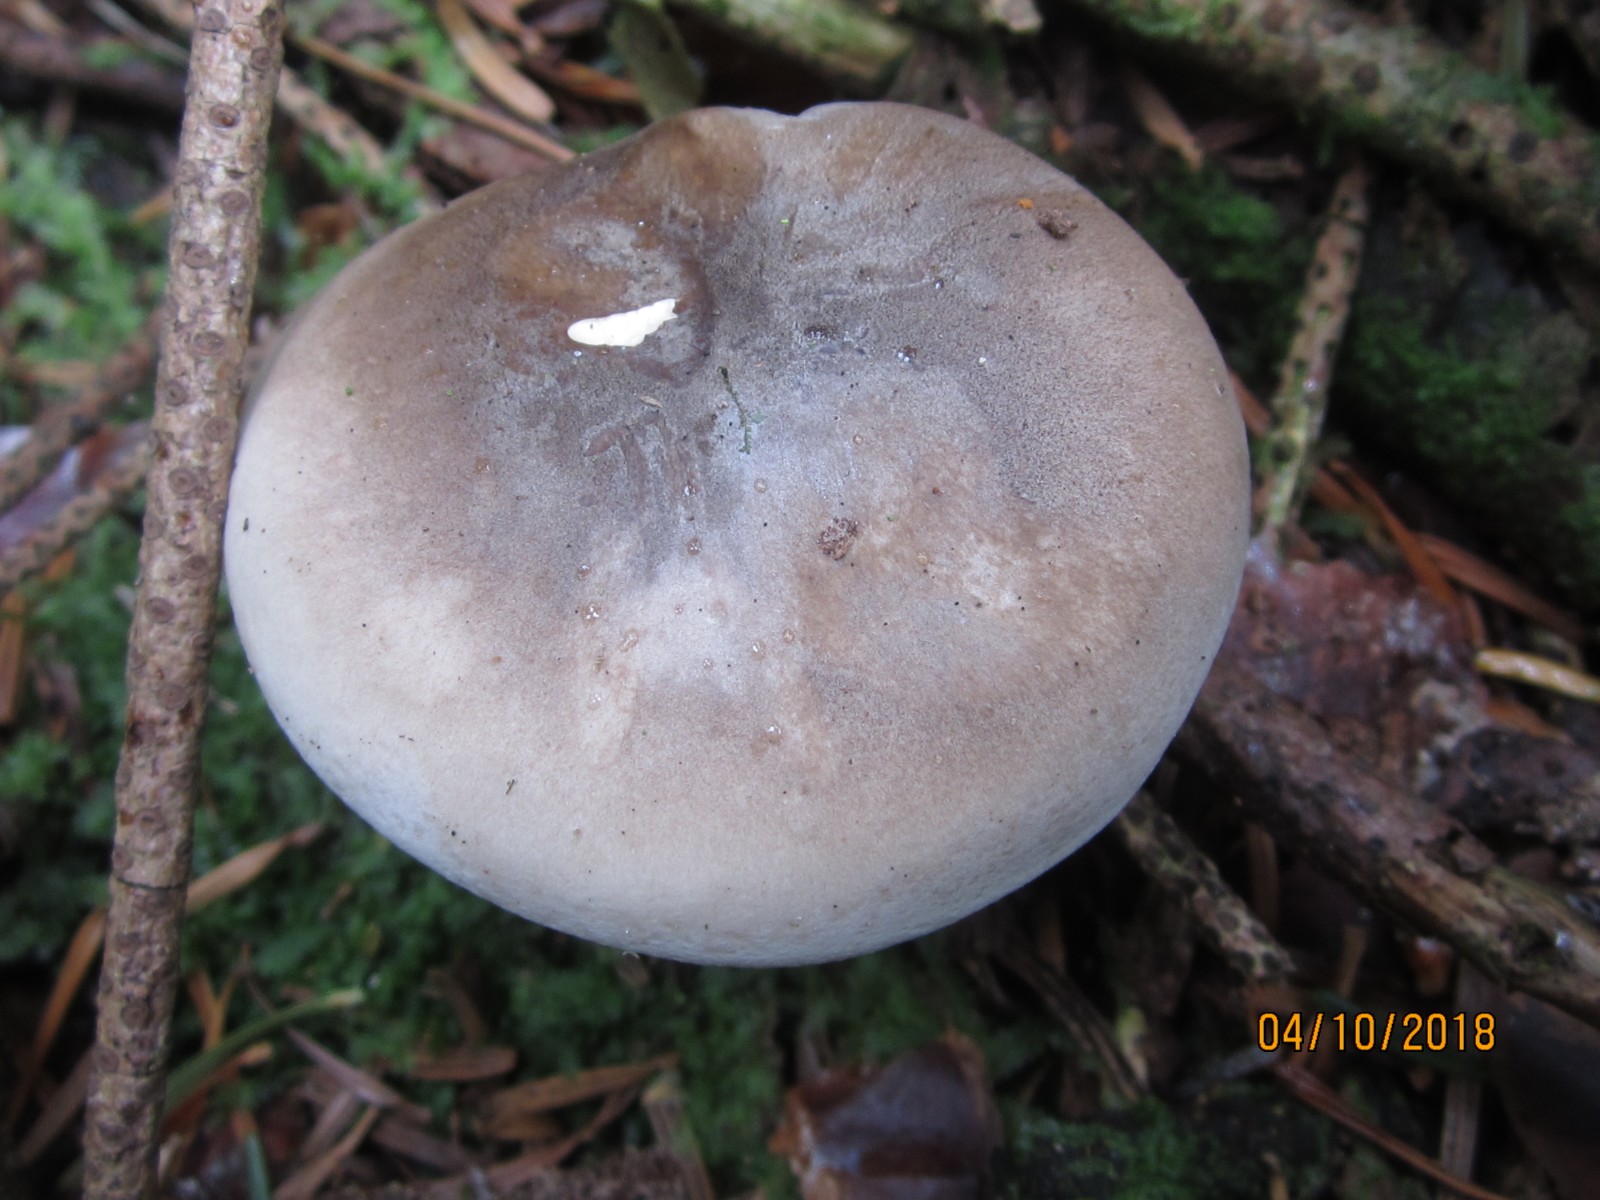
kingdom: Fungi
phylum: Basidiomycota
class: Agaricomycetes
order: Agaricales
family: Tricholomataceae
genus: Clitocybe
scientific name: Clitocybe nebularis
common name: tåge-tragthat
